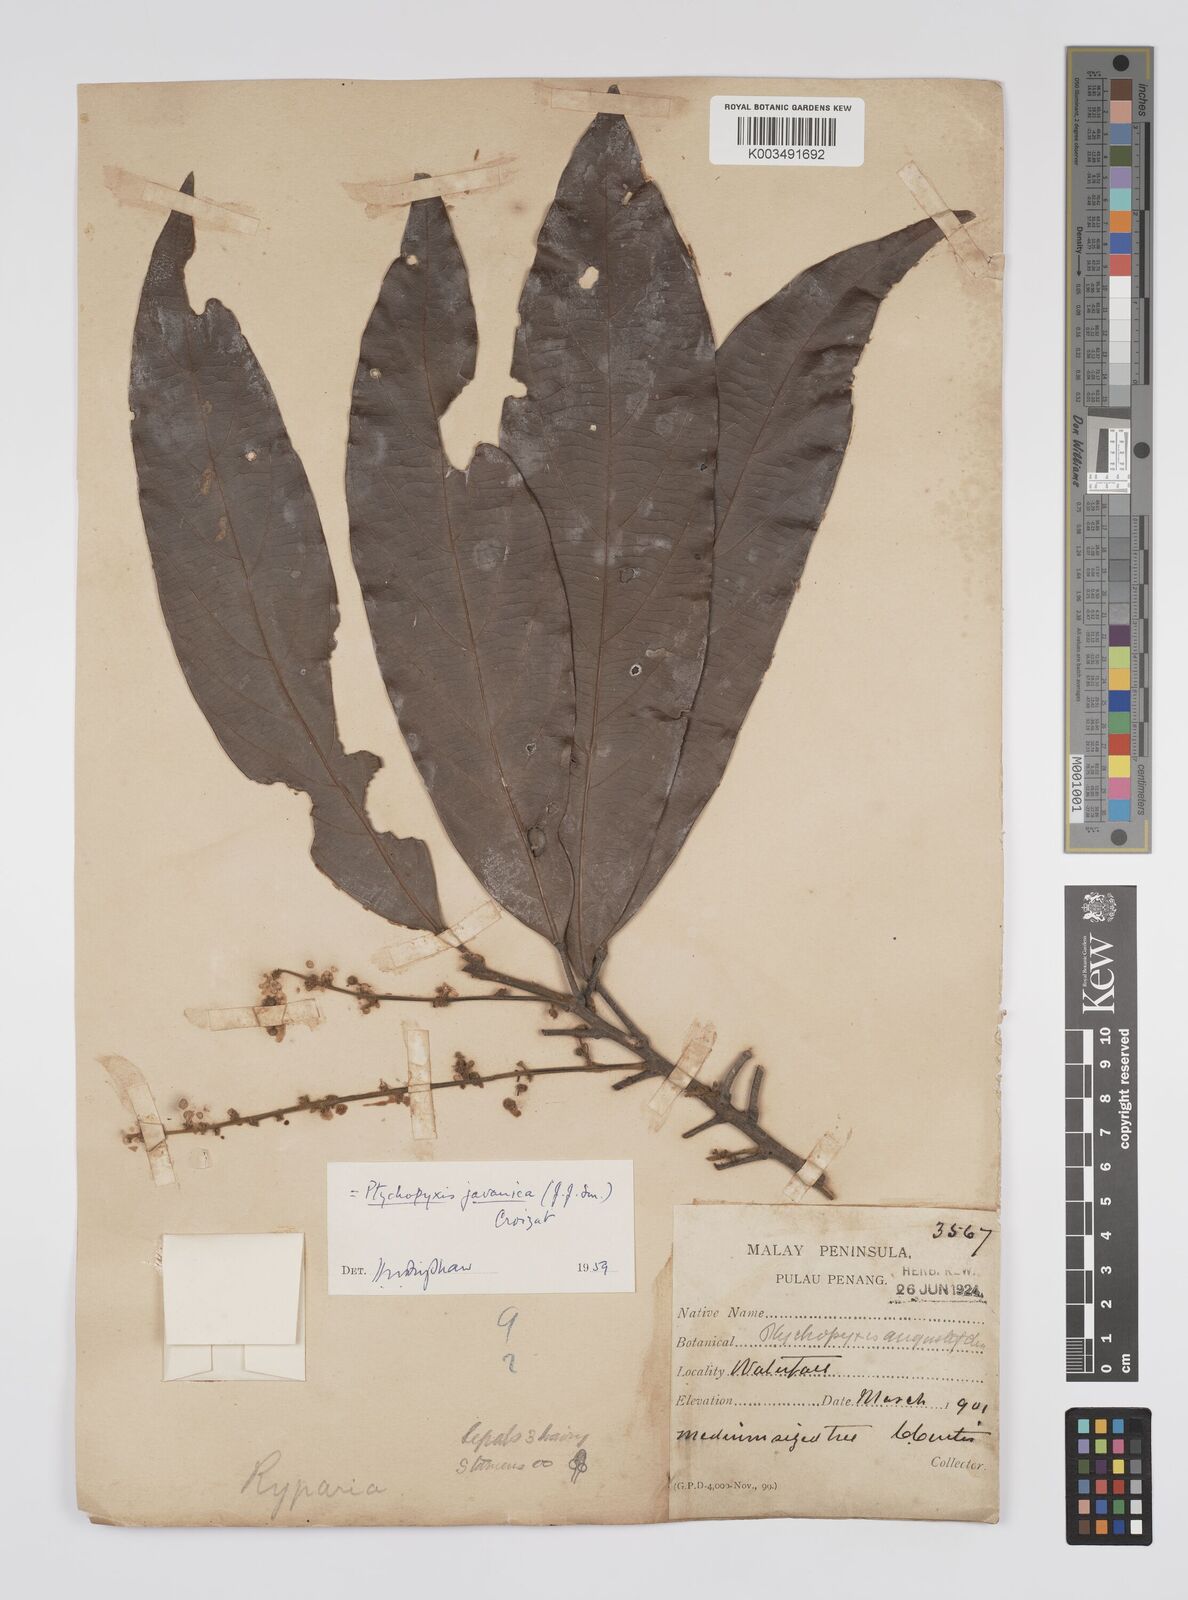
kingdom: Plantae
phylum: Tracheophyta
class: Magnoliopsida
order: Malpighiales
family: Euphorbiaceae
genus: Ptychopyxis
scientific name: Ptychopyxis javanica
